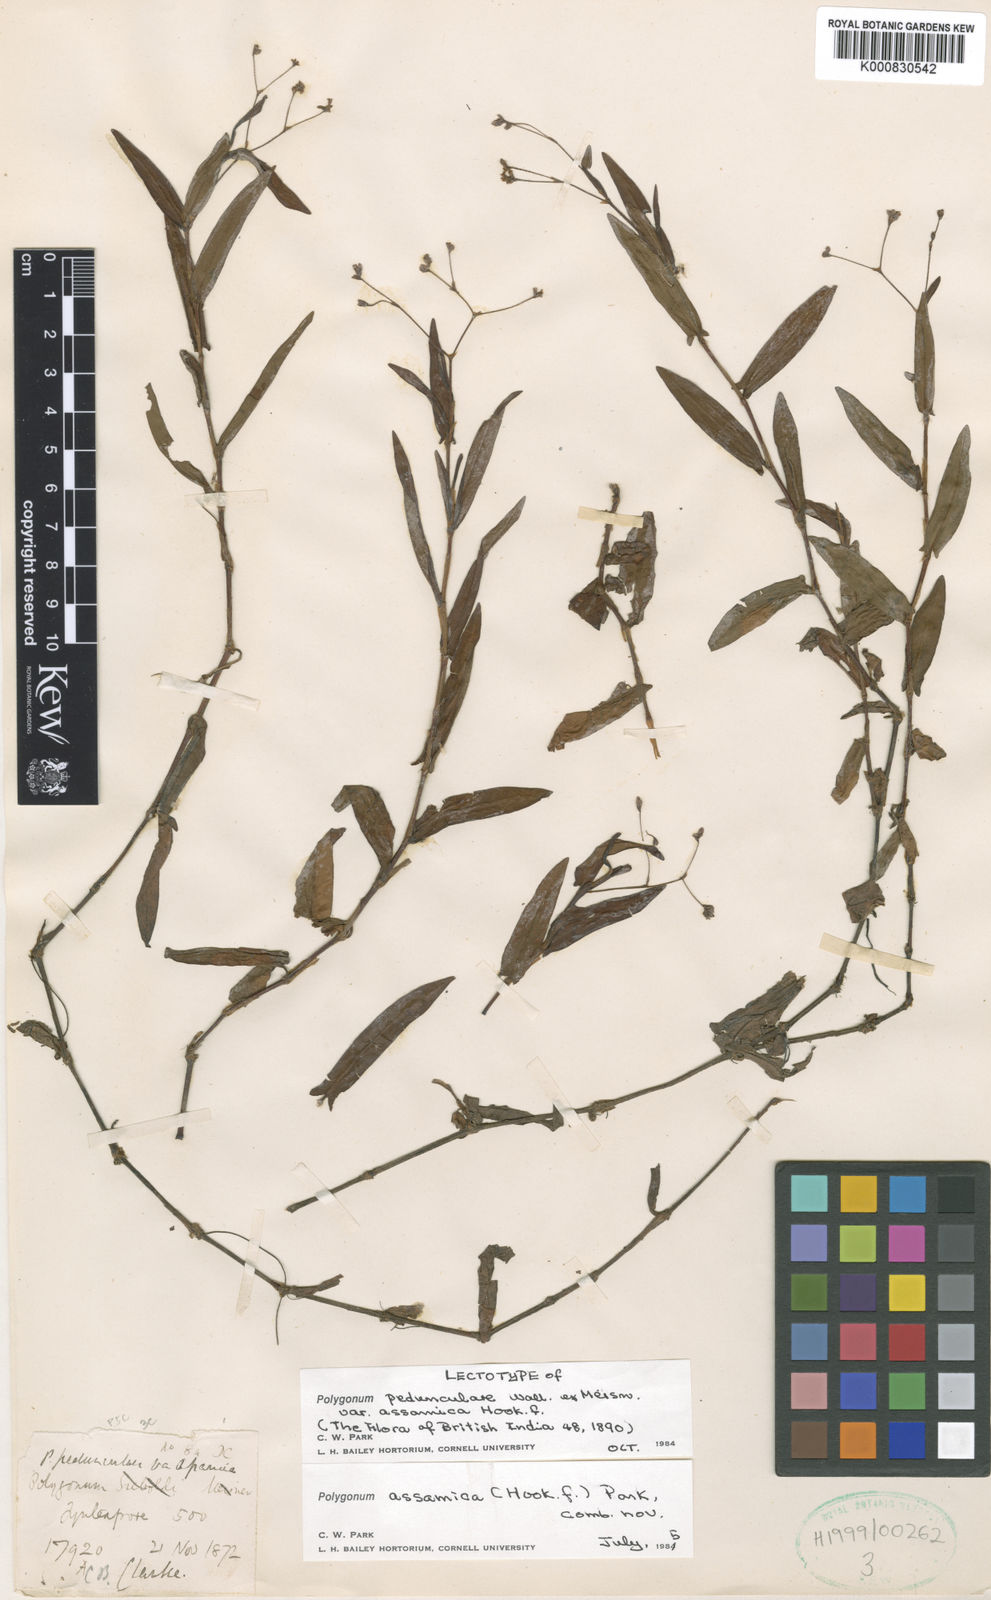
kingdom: Plantae
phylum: Tracheophyta
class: Magnoliopsida
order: Caryophyllales
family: Polygonaceae
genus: Polygonum
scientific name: Polygonum
